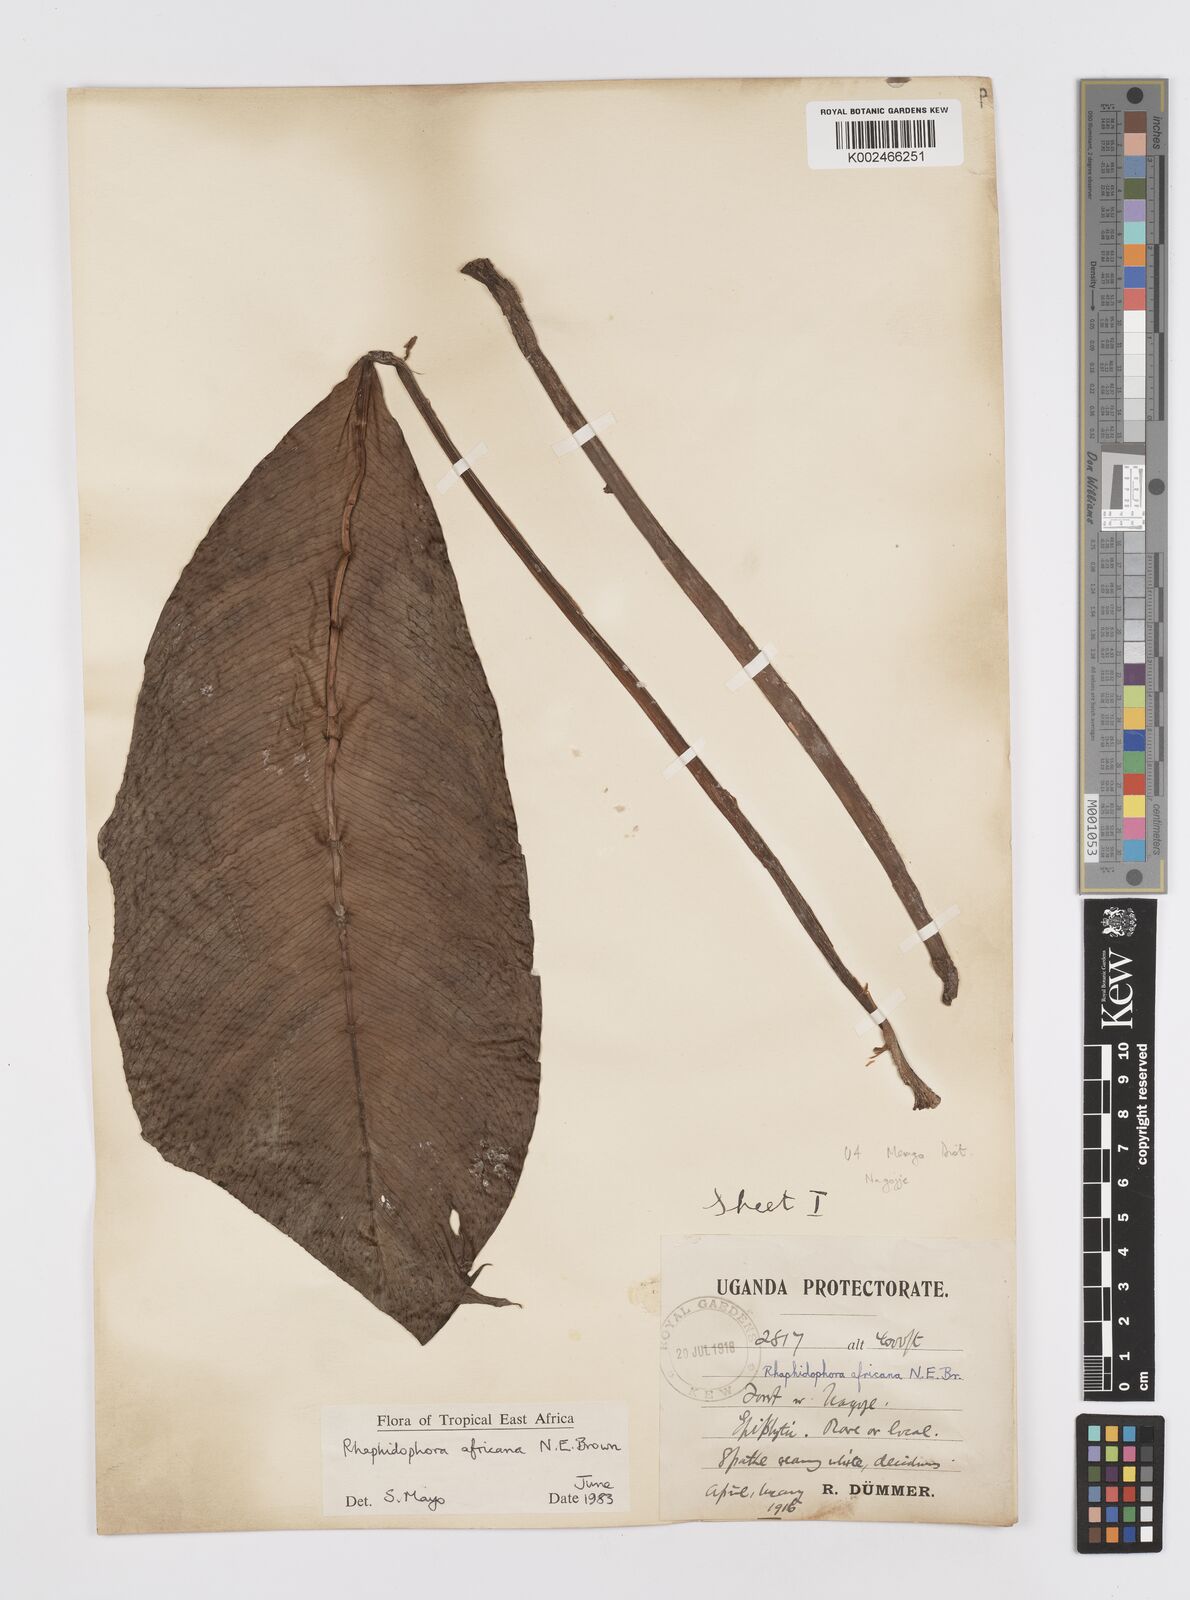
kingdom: Plantae
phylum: Tracheophyta
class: Liliopsida
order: Alismatales
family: Araceae
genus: Rhaphidophora
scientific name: Rhaphidophora africana
